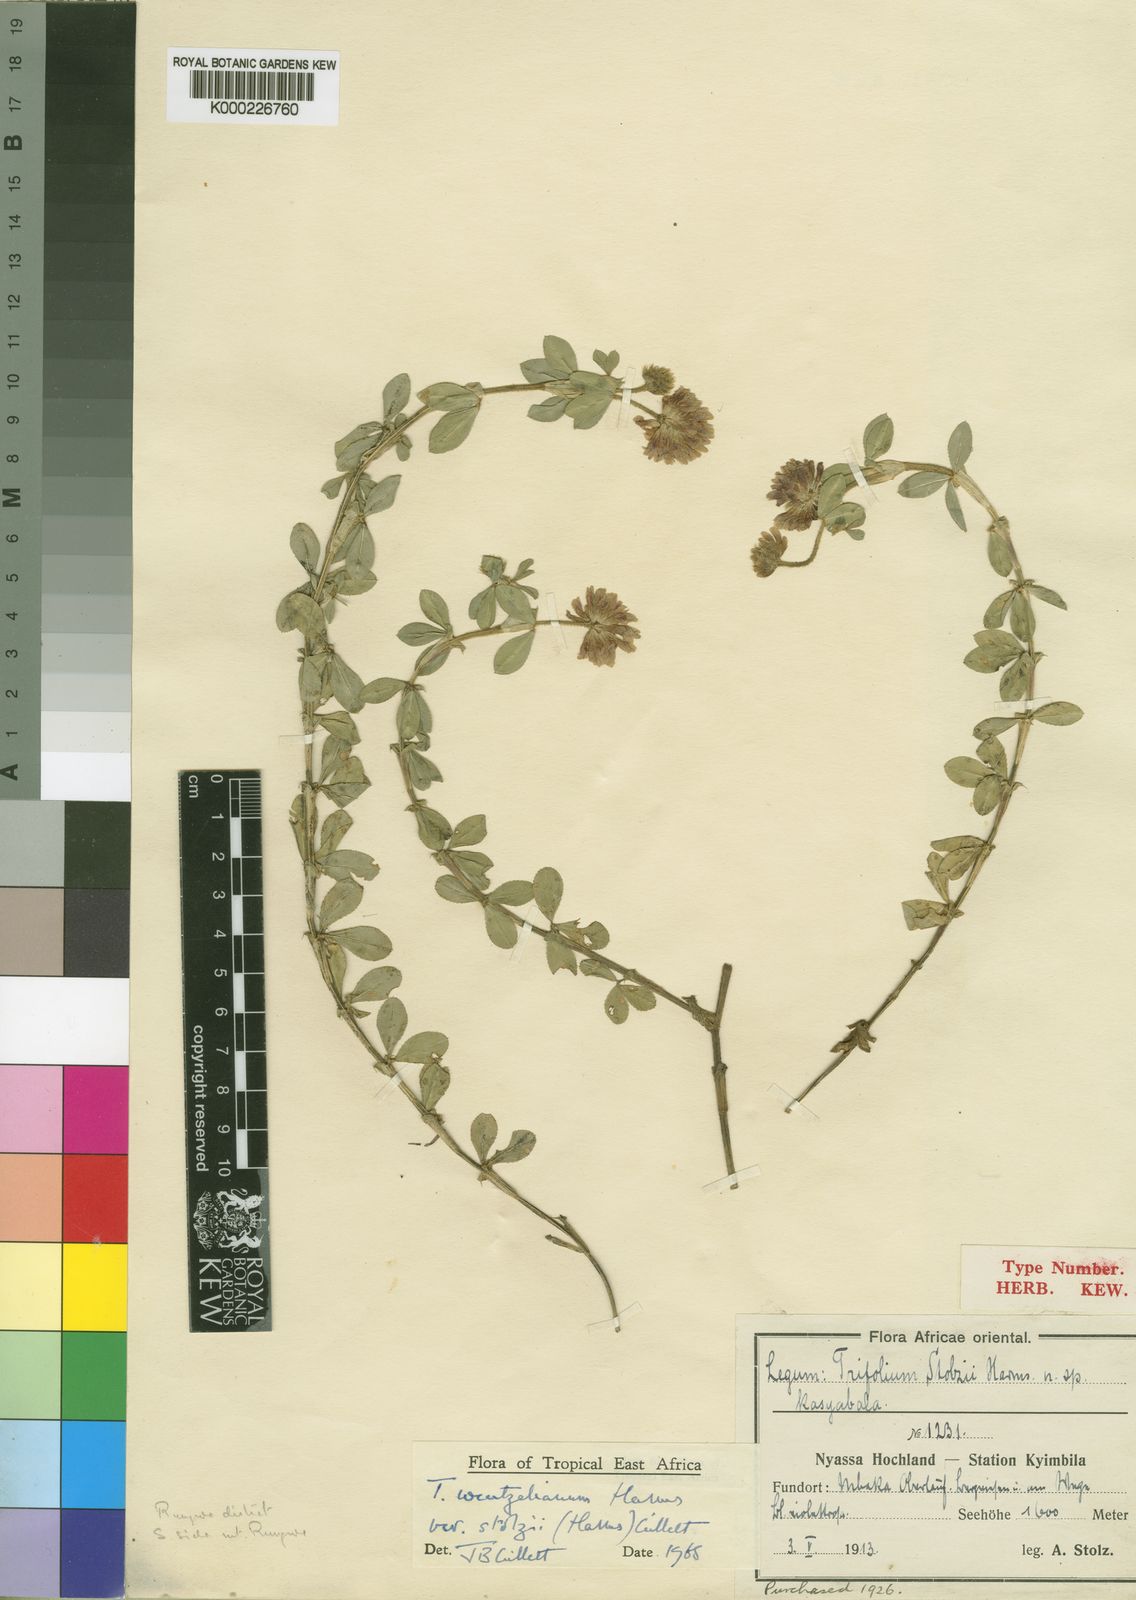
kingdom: Plantae
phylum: Tracheophyta
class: Magnoliopsida
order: Fabales
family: Fabaceae
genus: Trifolium
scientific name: Trifolium wentzelianum
